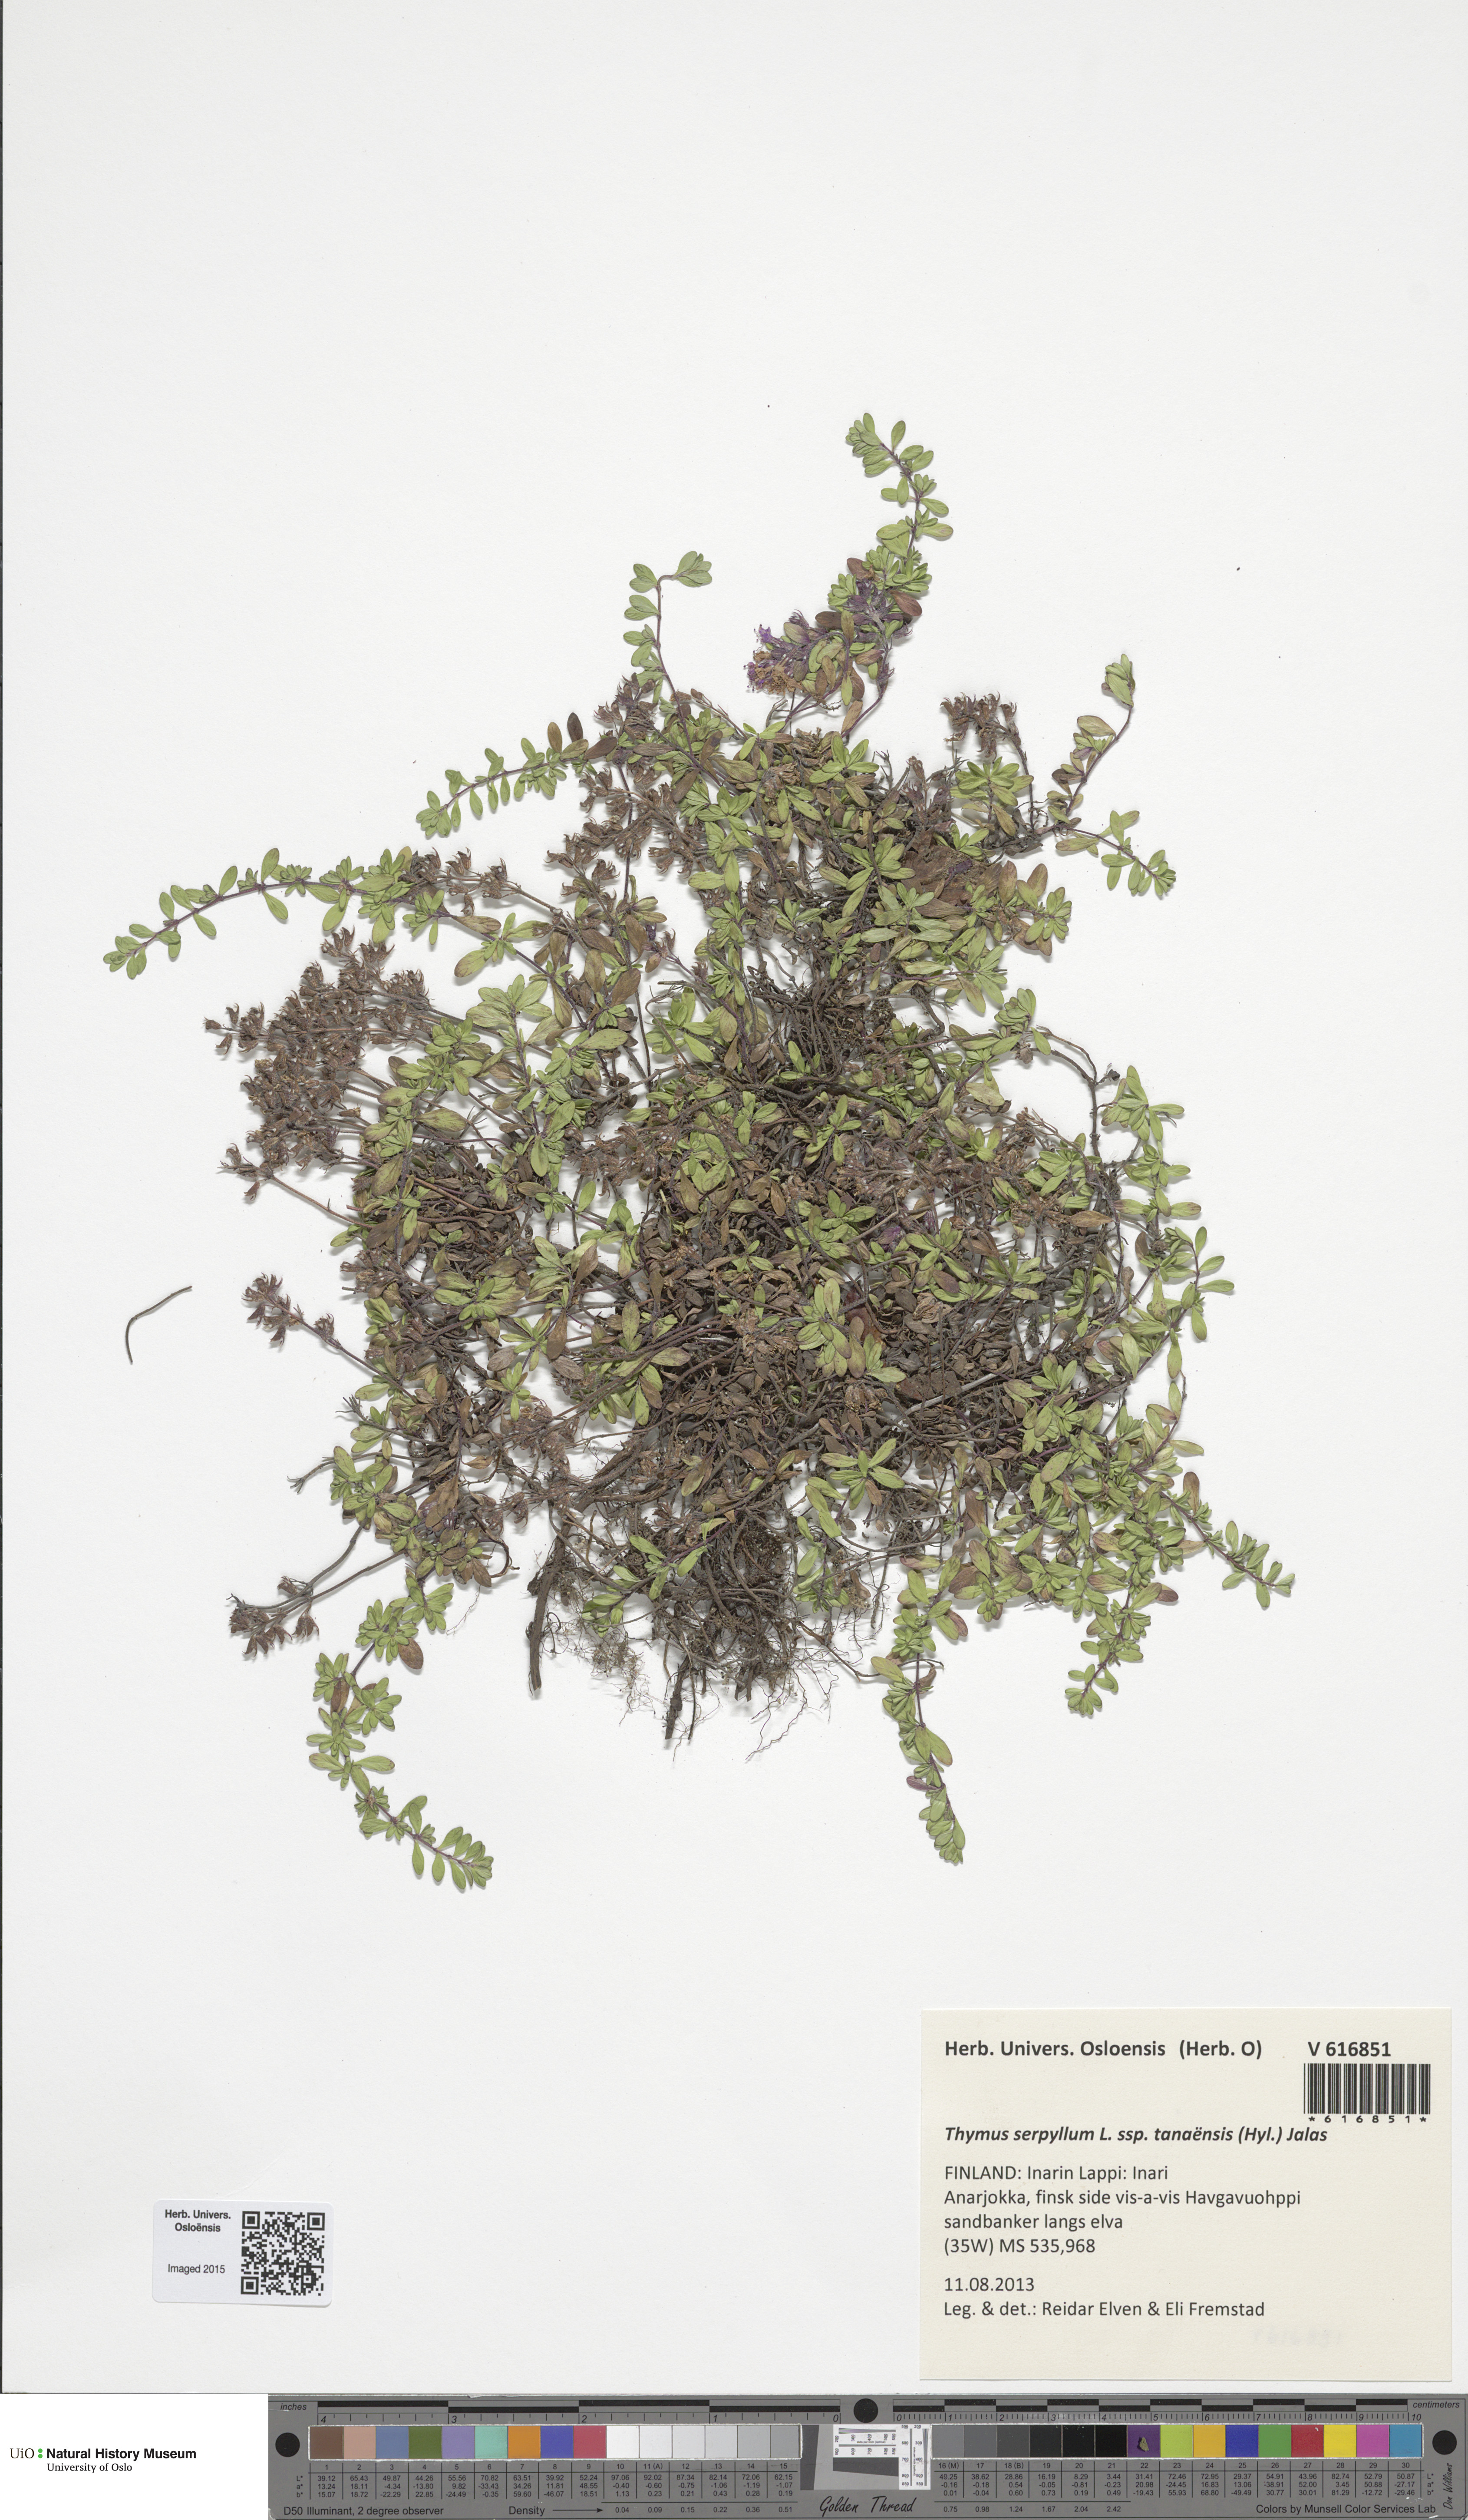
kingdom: Plantae
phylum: Tracheophyta
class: Magnoliopsida
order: Lamiales
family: Lamiaceae
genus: Thymus
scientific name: Thymus serpyllum
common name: Breckland thyme
